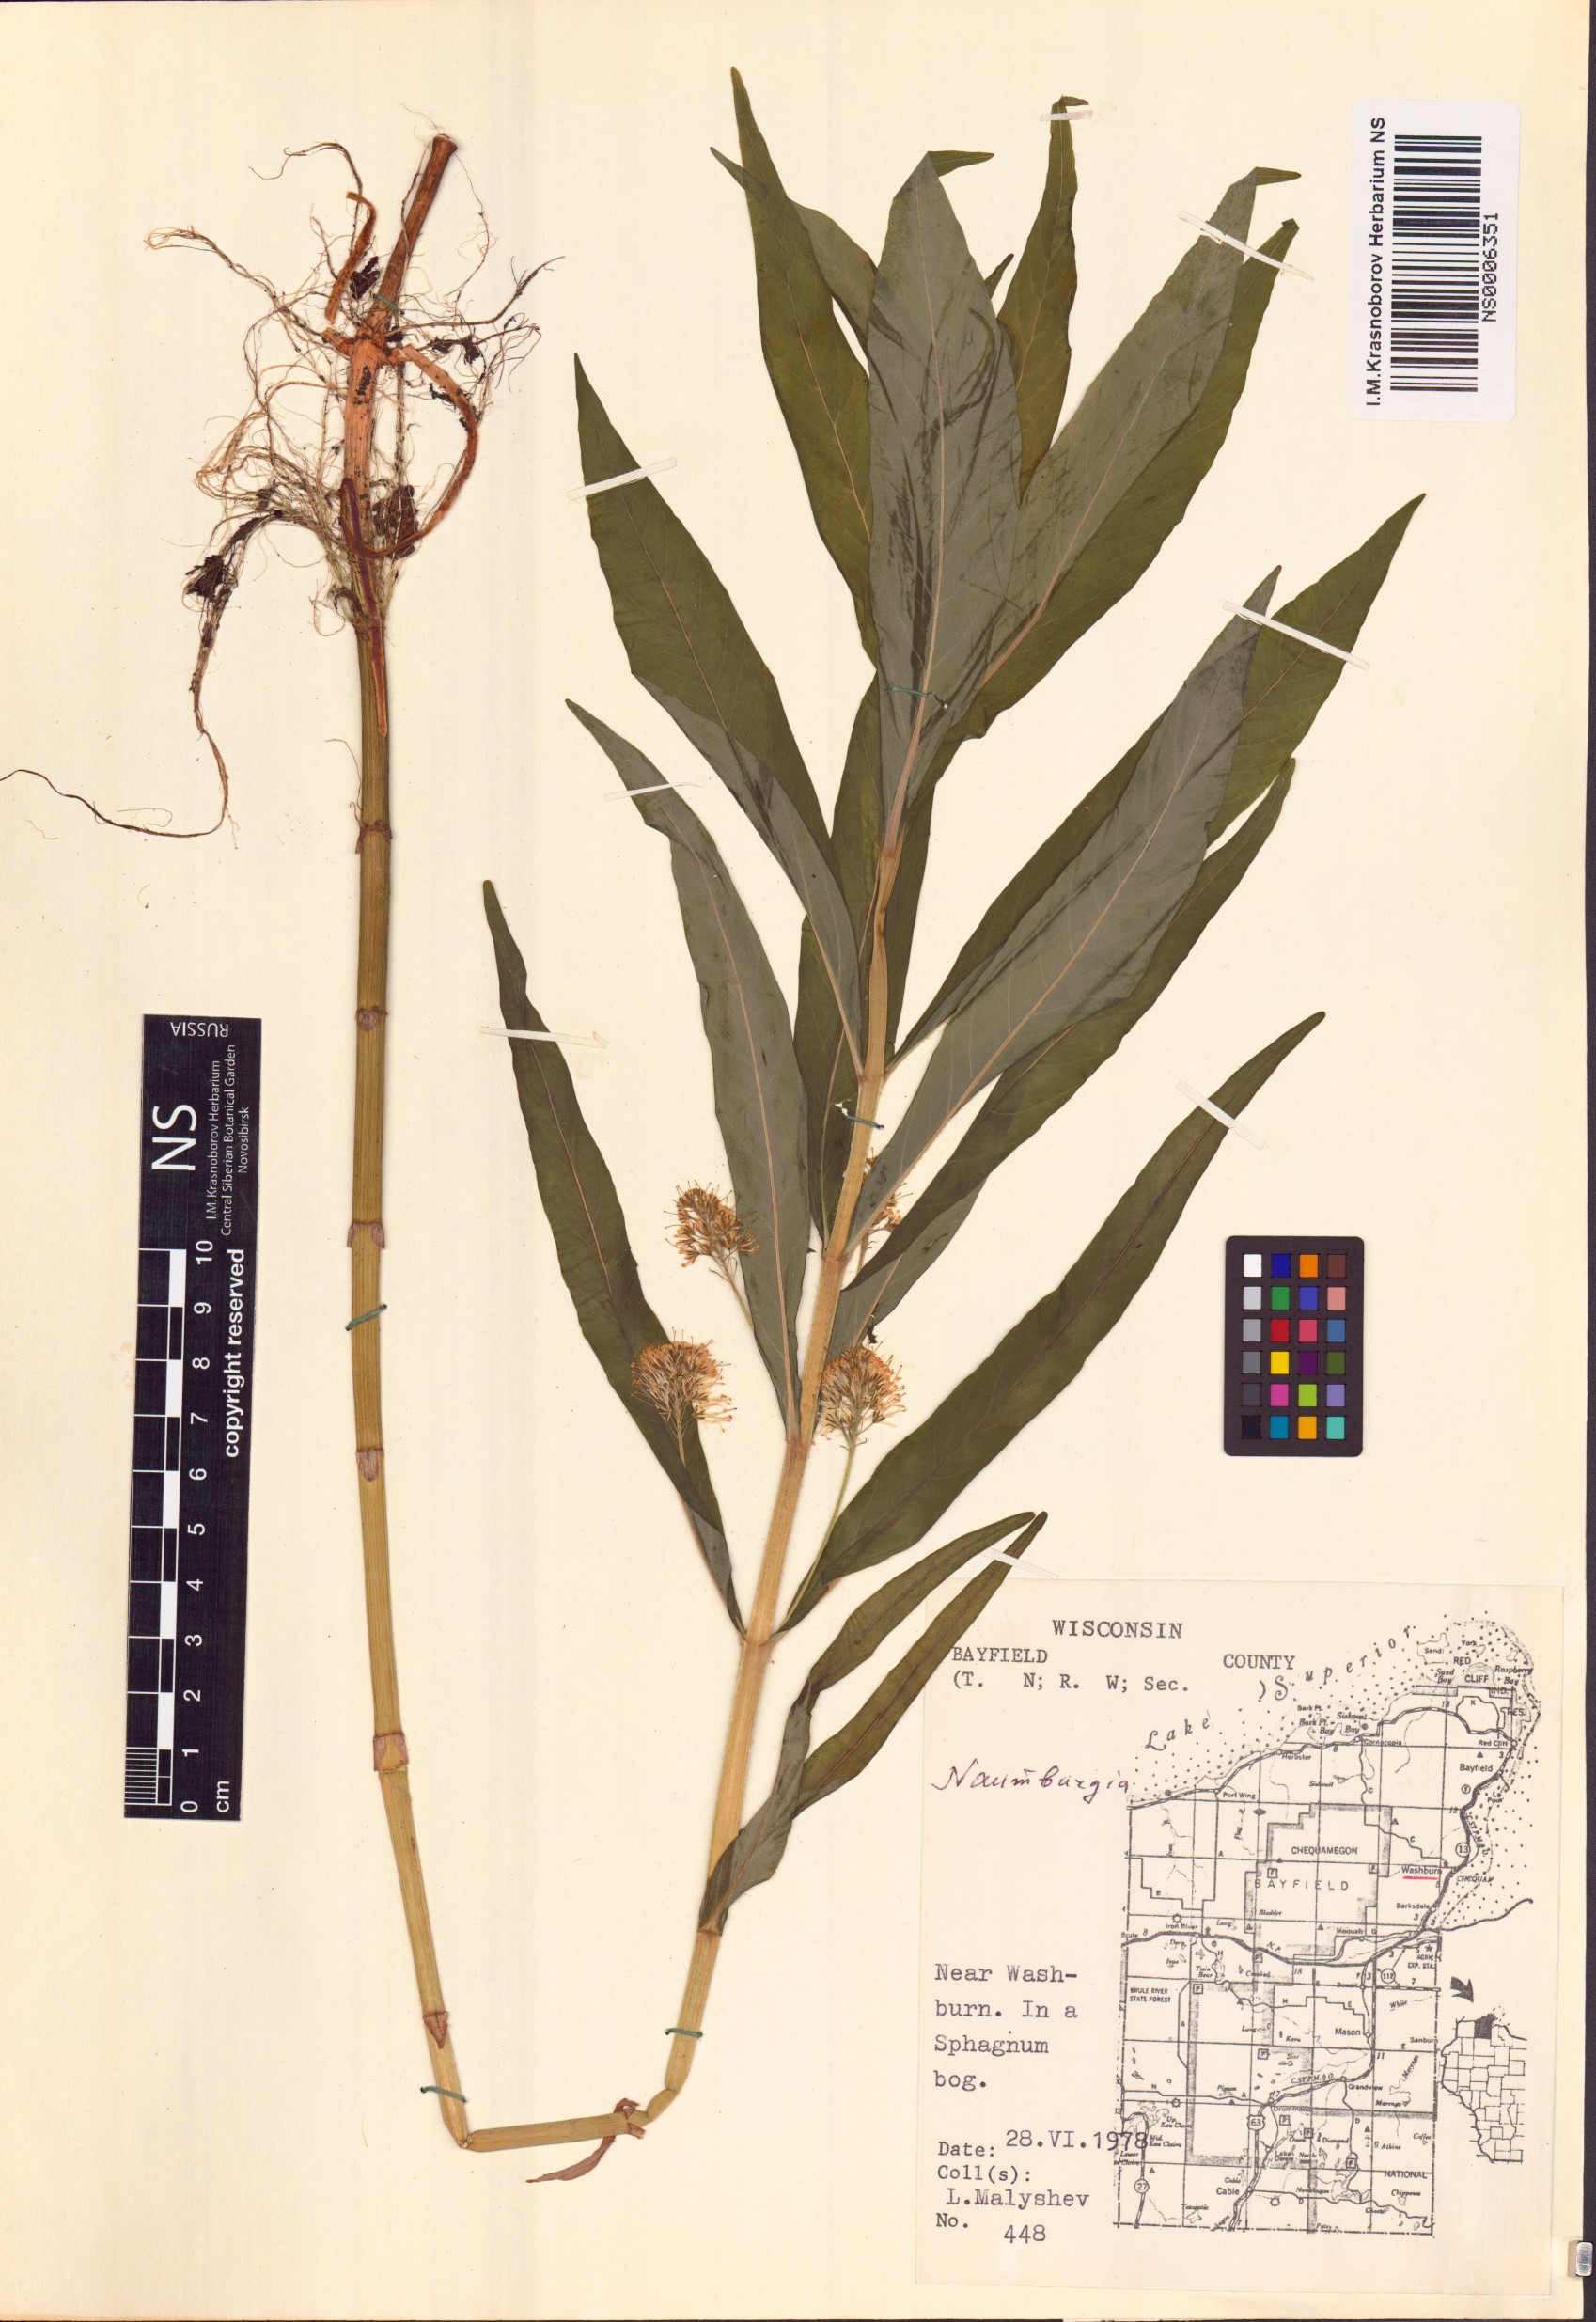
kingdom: Plantae
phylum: Tracheophyta
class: Magnoliopsida
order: Ericales
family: Primulaceae
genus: Lysimachia
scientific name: Lysimachia thyrsiflora
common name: Tufted loosestrife
